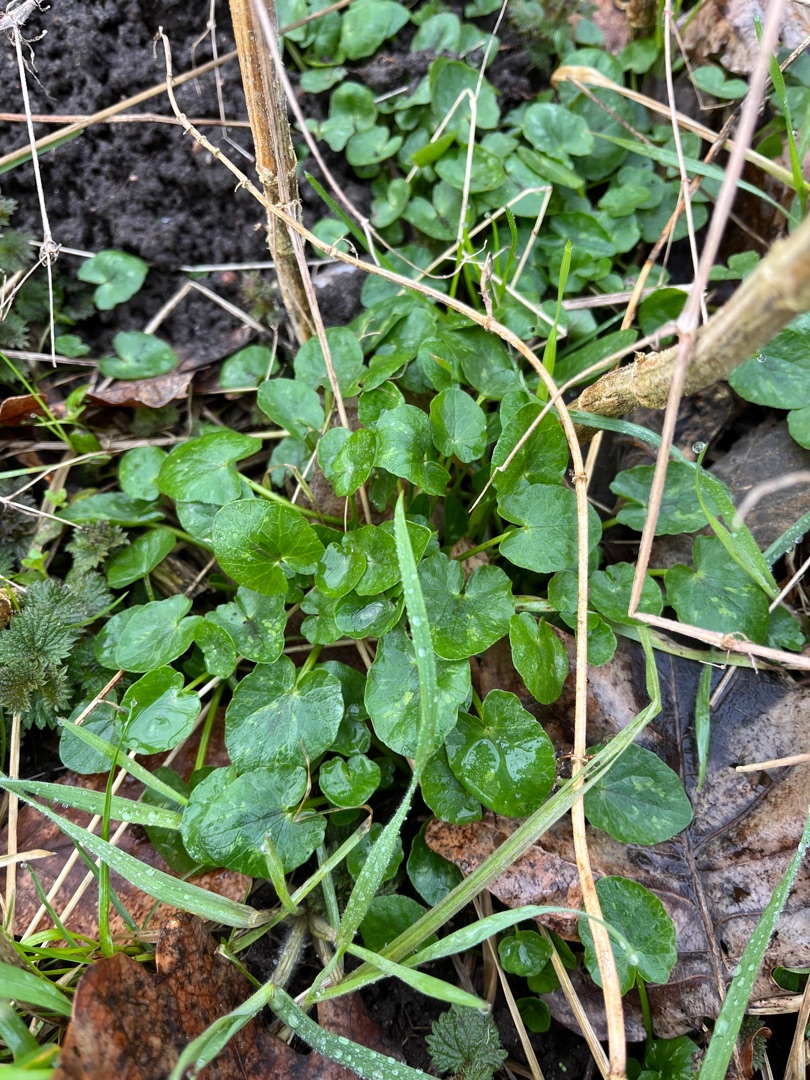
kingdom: Plantae
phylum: Tracheophyta
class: Magnoliopsida
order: Ranunculales
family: Ranunculaceae
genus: Ficaria
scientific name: Ficaria verna
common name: Vorterod
